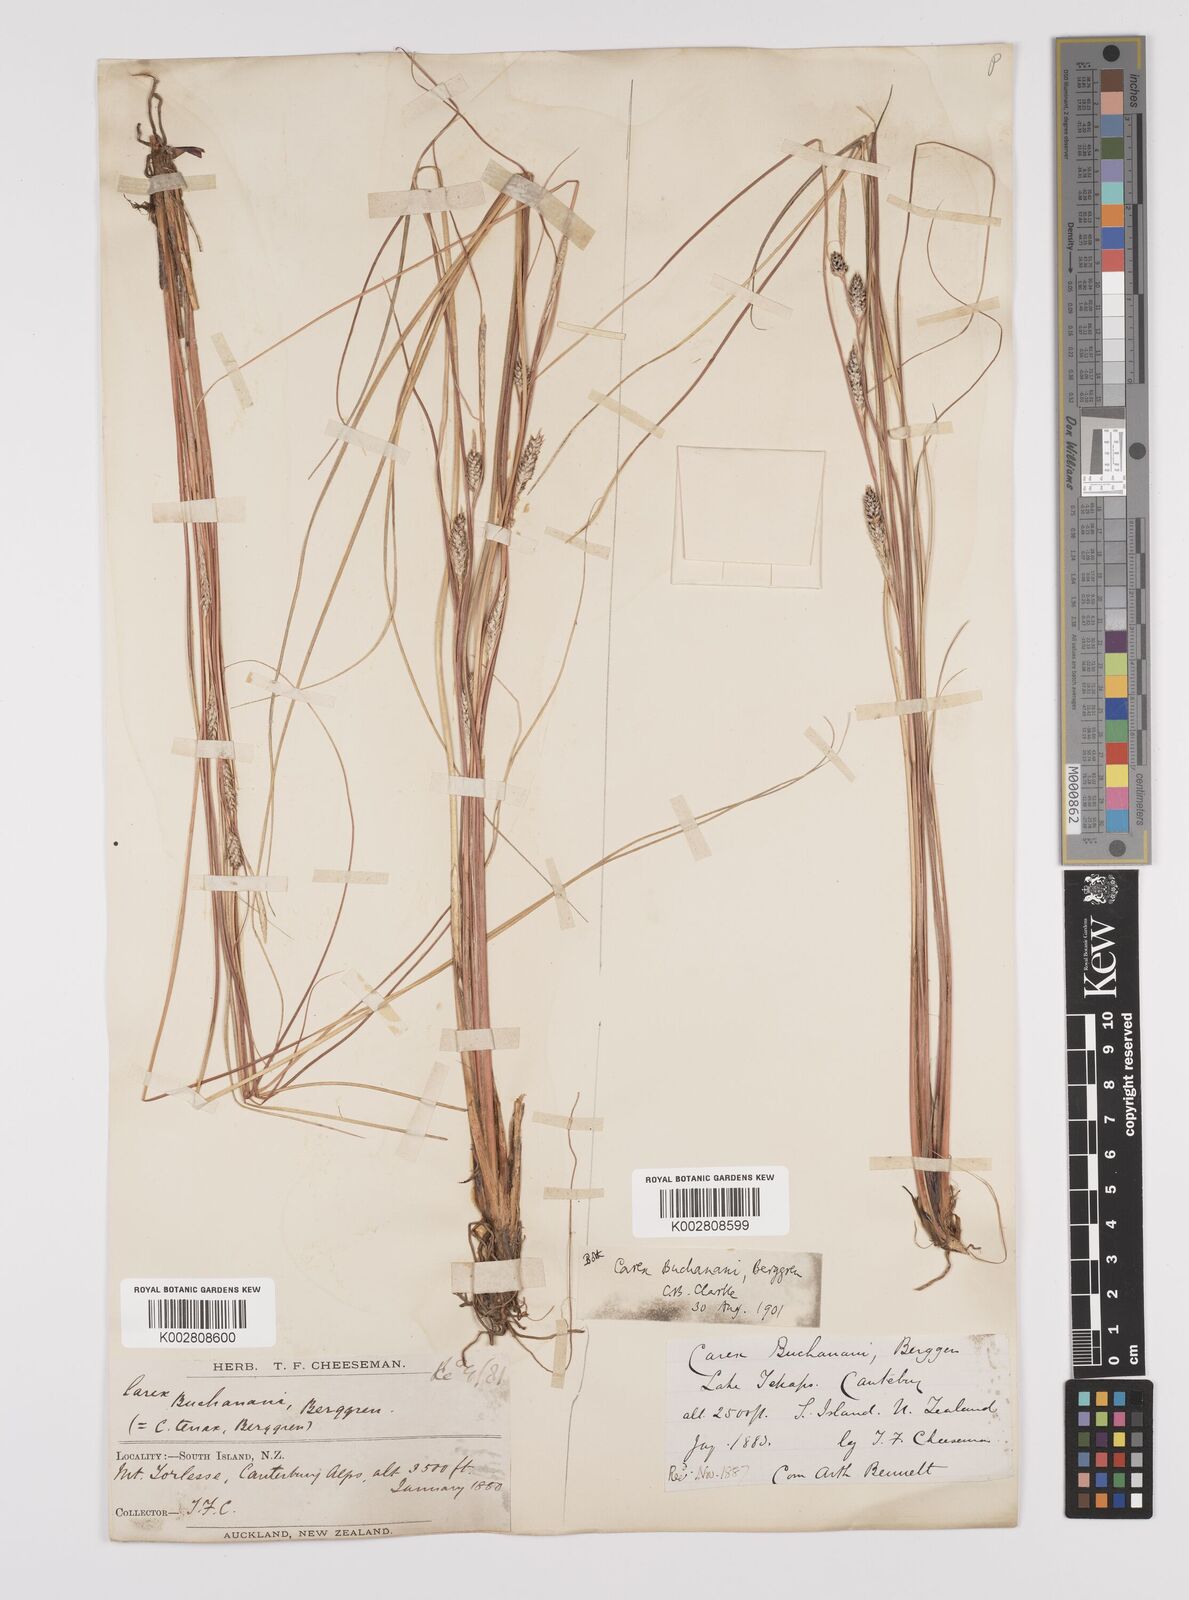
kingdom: Plantae
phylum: Tracheophyta
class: Liliopsida
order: Poales
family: Cyperaceae
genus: Carex
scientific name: Carex flagellifera
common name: Glen murray tussock
